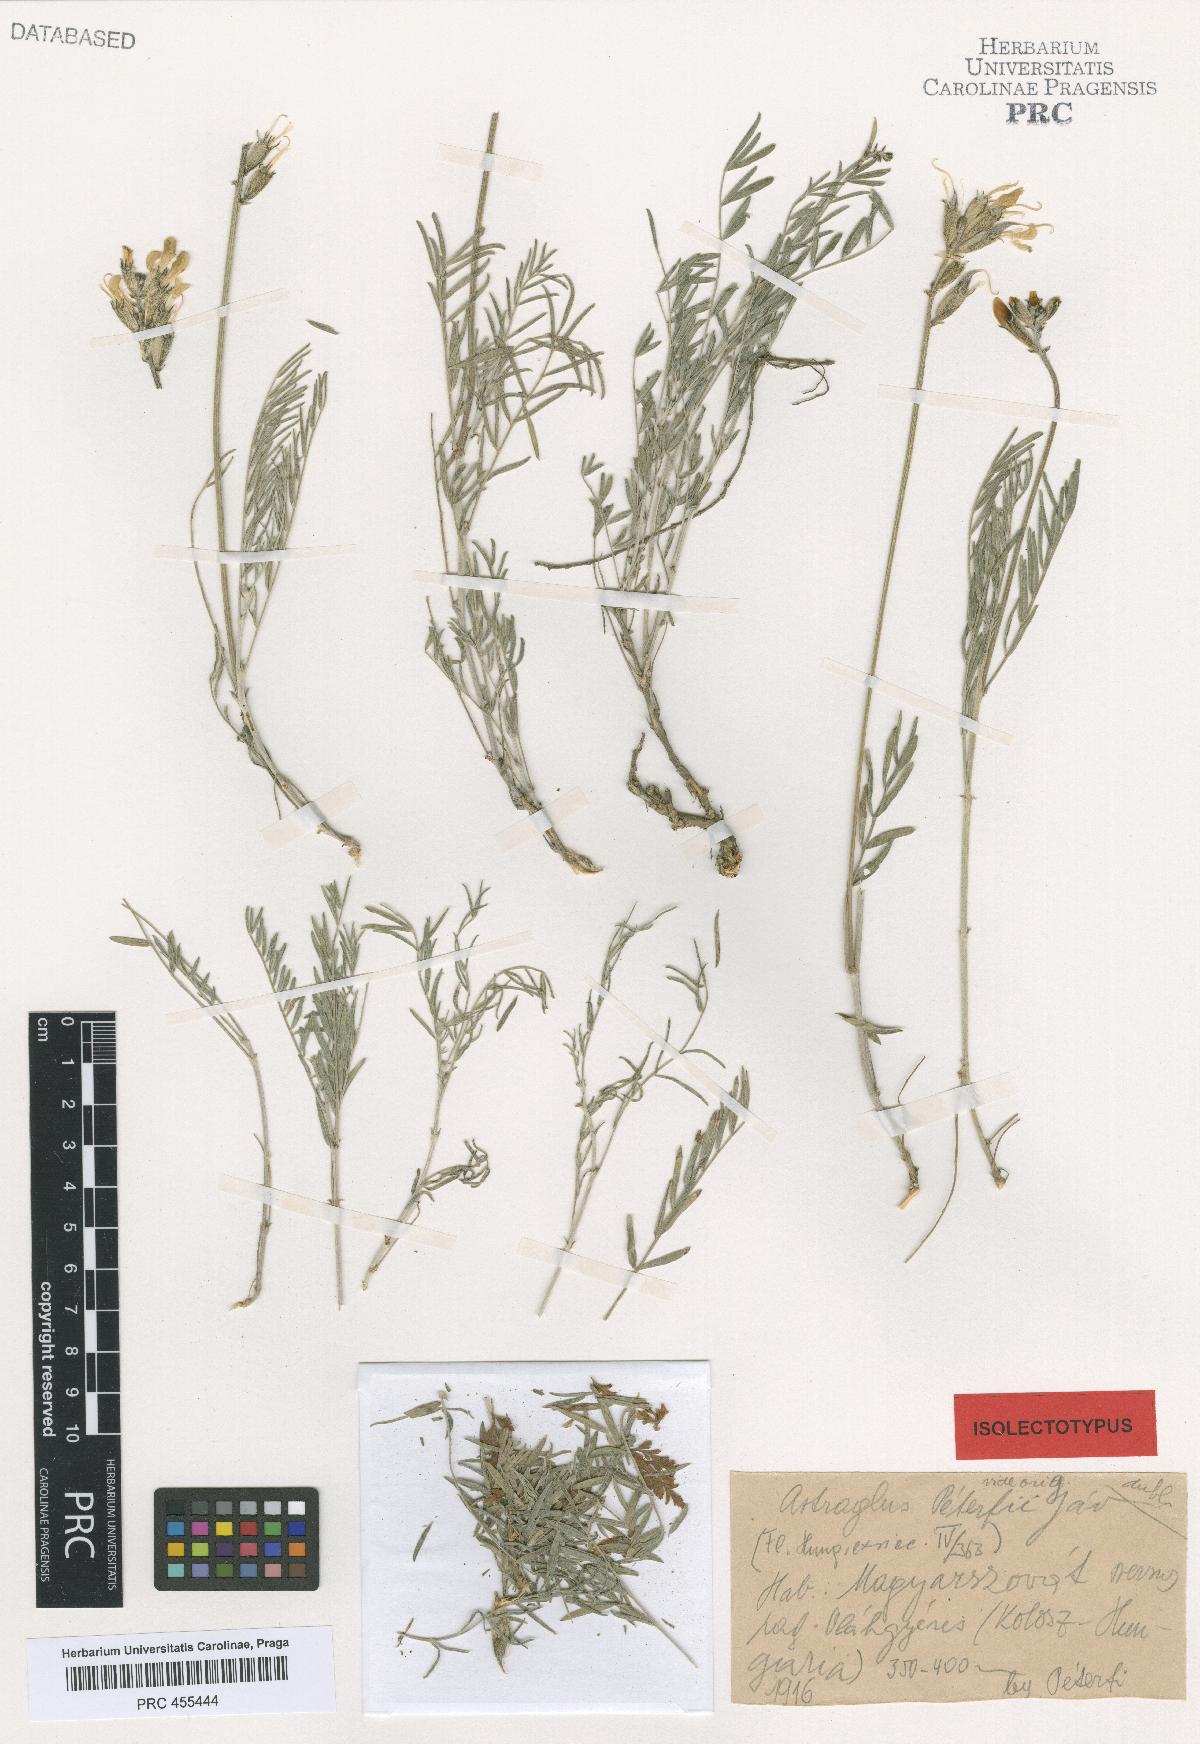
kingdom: Plantae
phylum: Tracheophyta
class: Magnoliopsida
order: Fabales
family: Fabaceae
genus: Astragalus
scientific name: Astragalus peterfii
